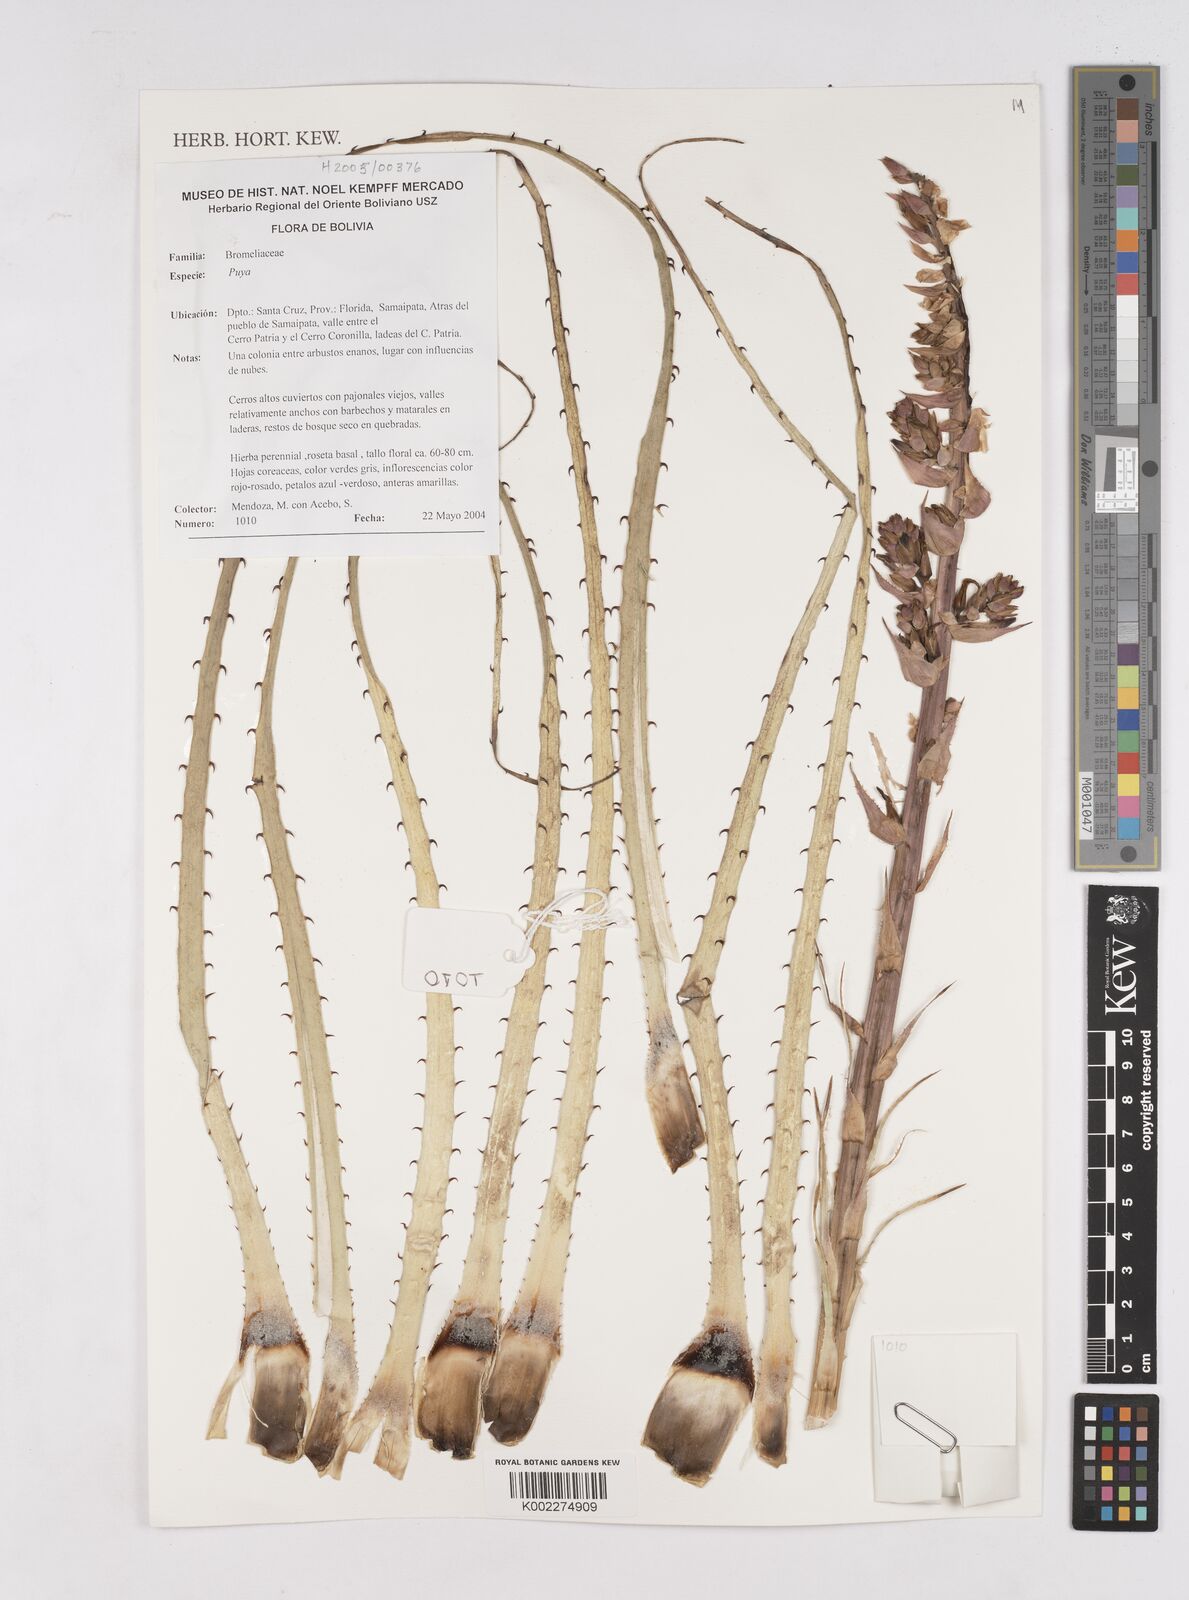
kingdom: Plantae
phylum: Tracheophyta
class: Liliopsida
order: Poales
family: Bromeliaceae
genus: Puya
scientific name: Puya
